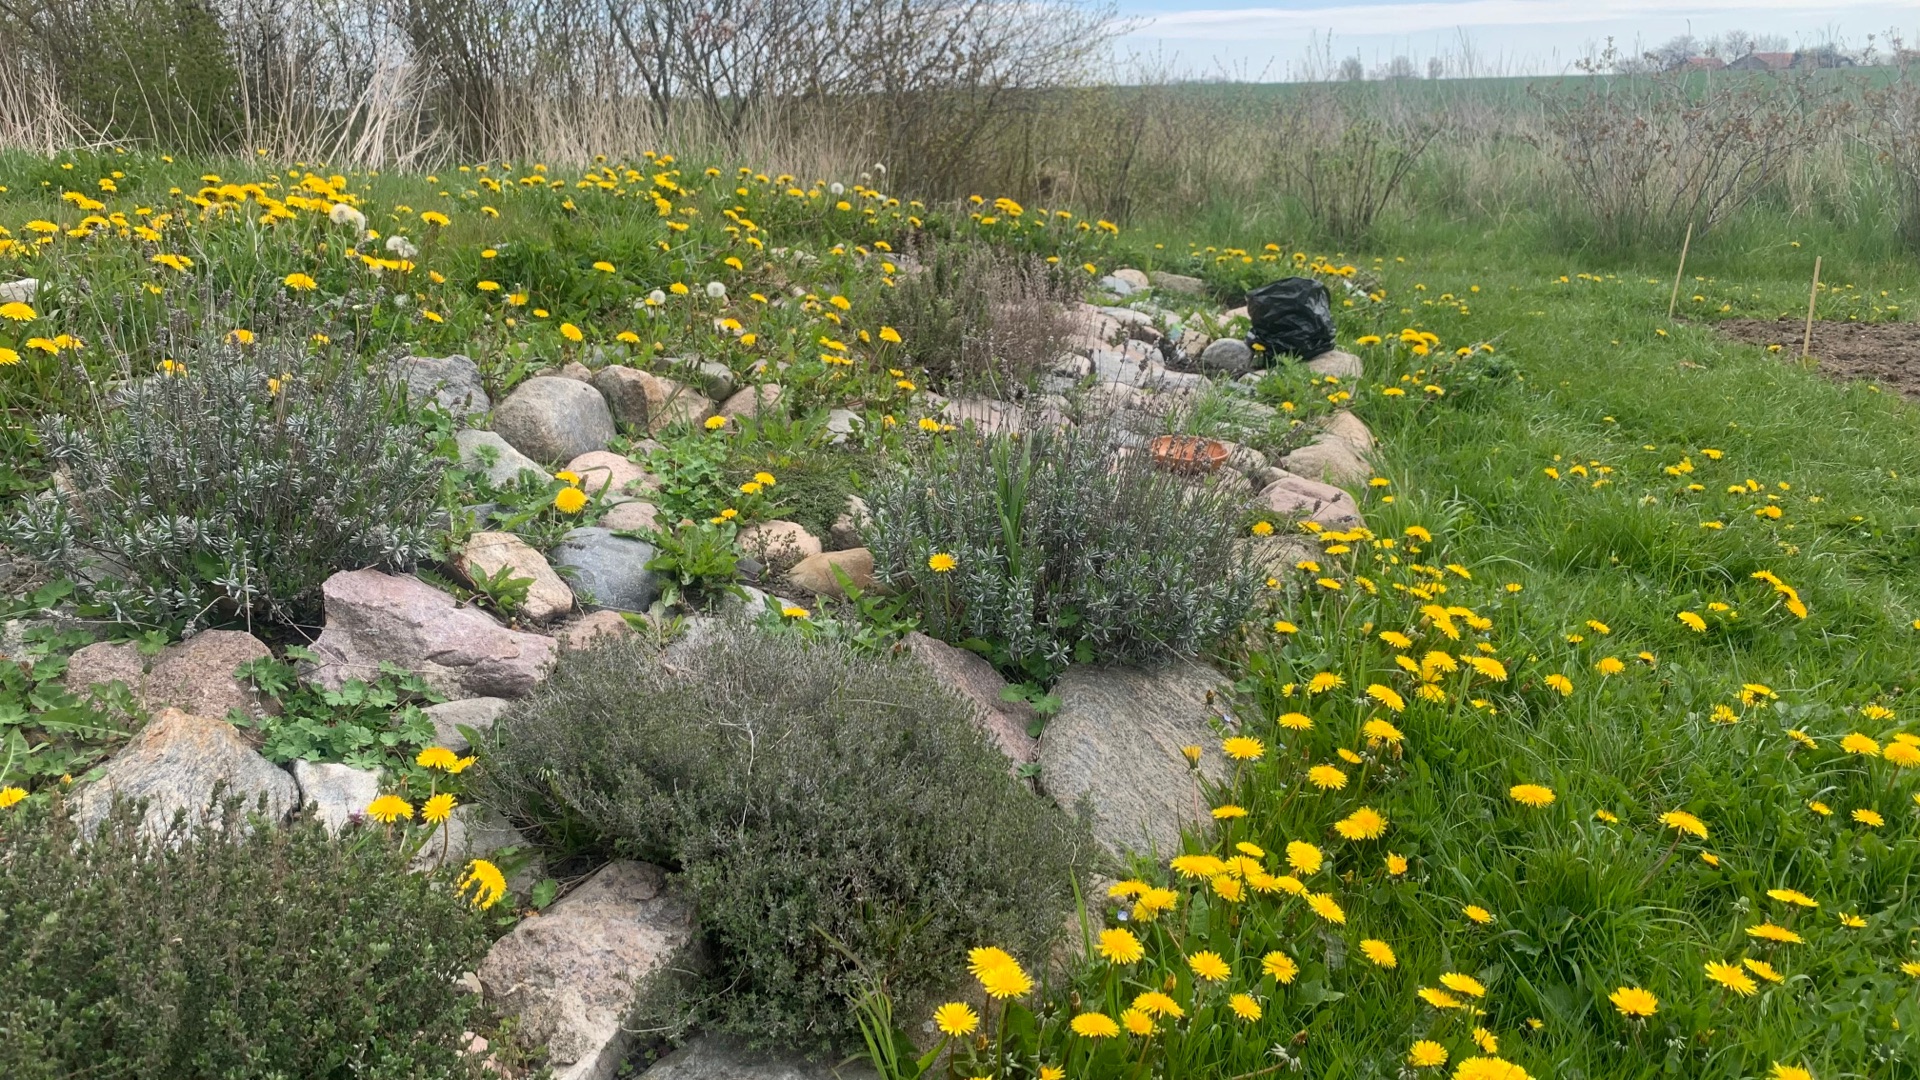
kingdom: Plantae
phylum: Tracheophyta
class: Magnoliopsida
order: Asterales
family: Asteraceae
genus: Taraxacum
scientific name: Taraxacum
